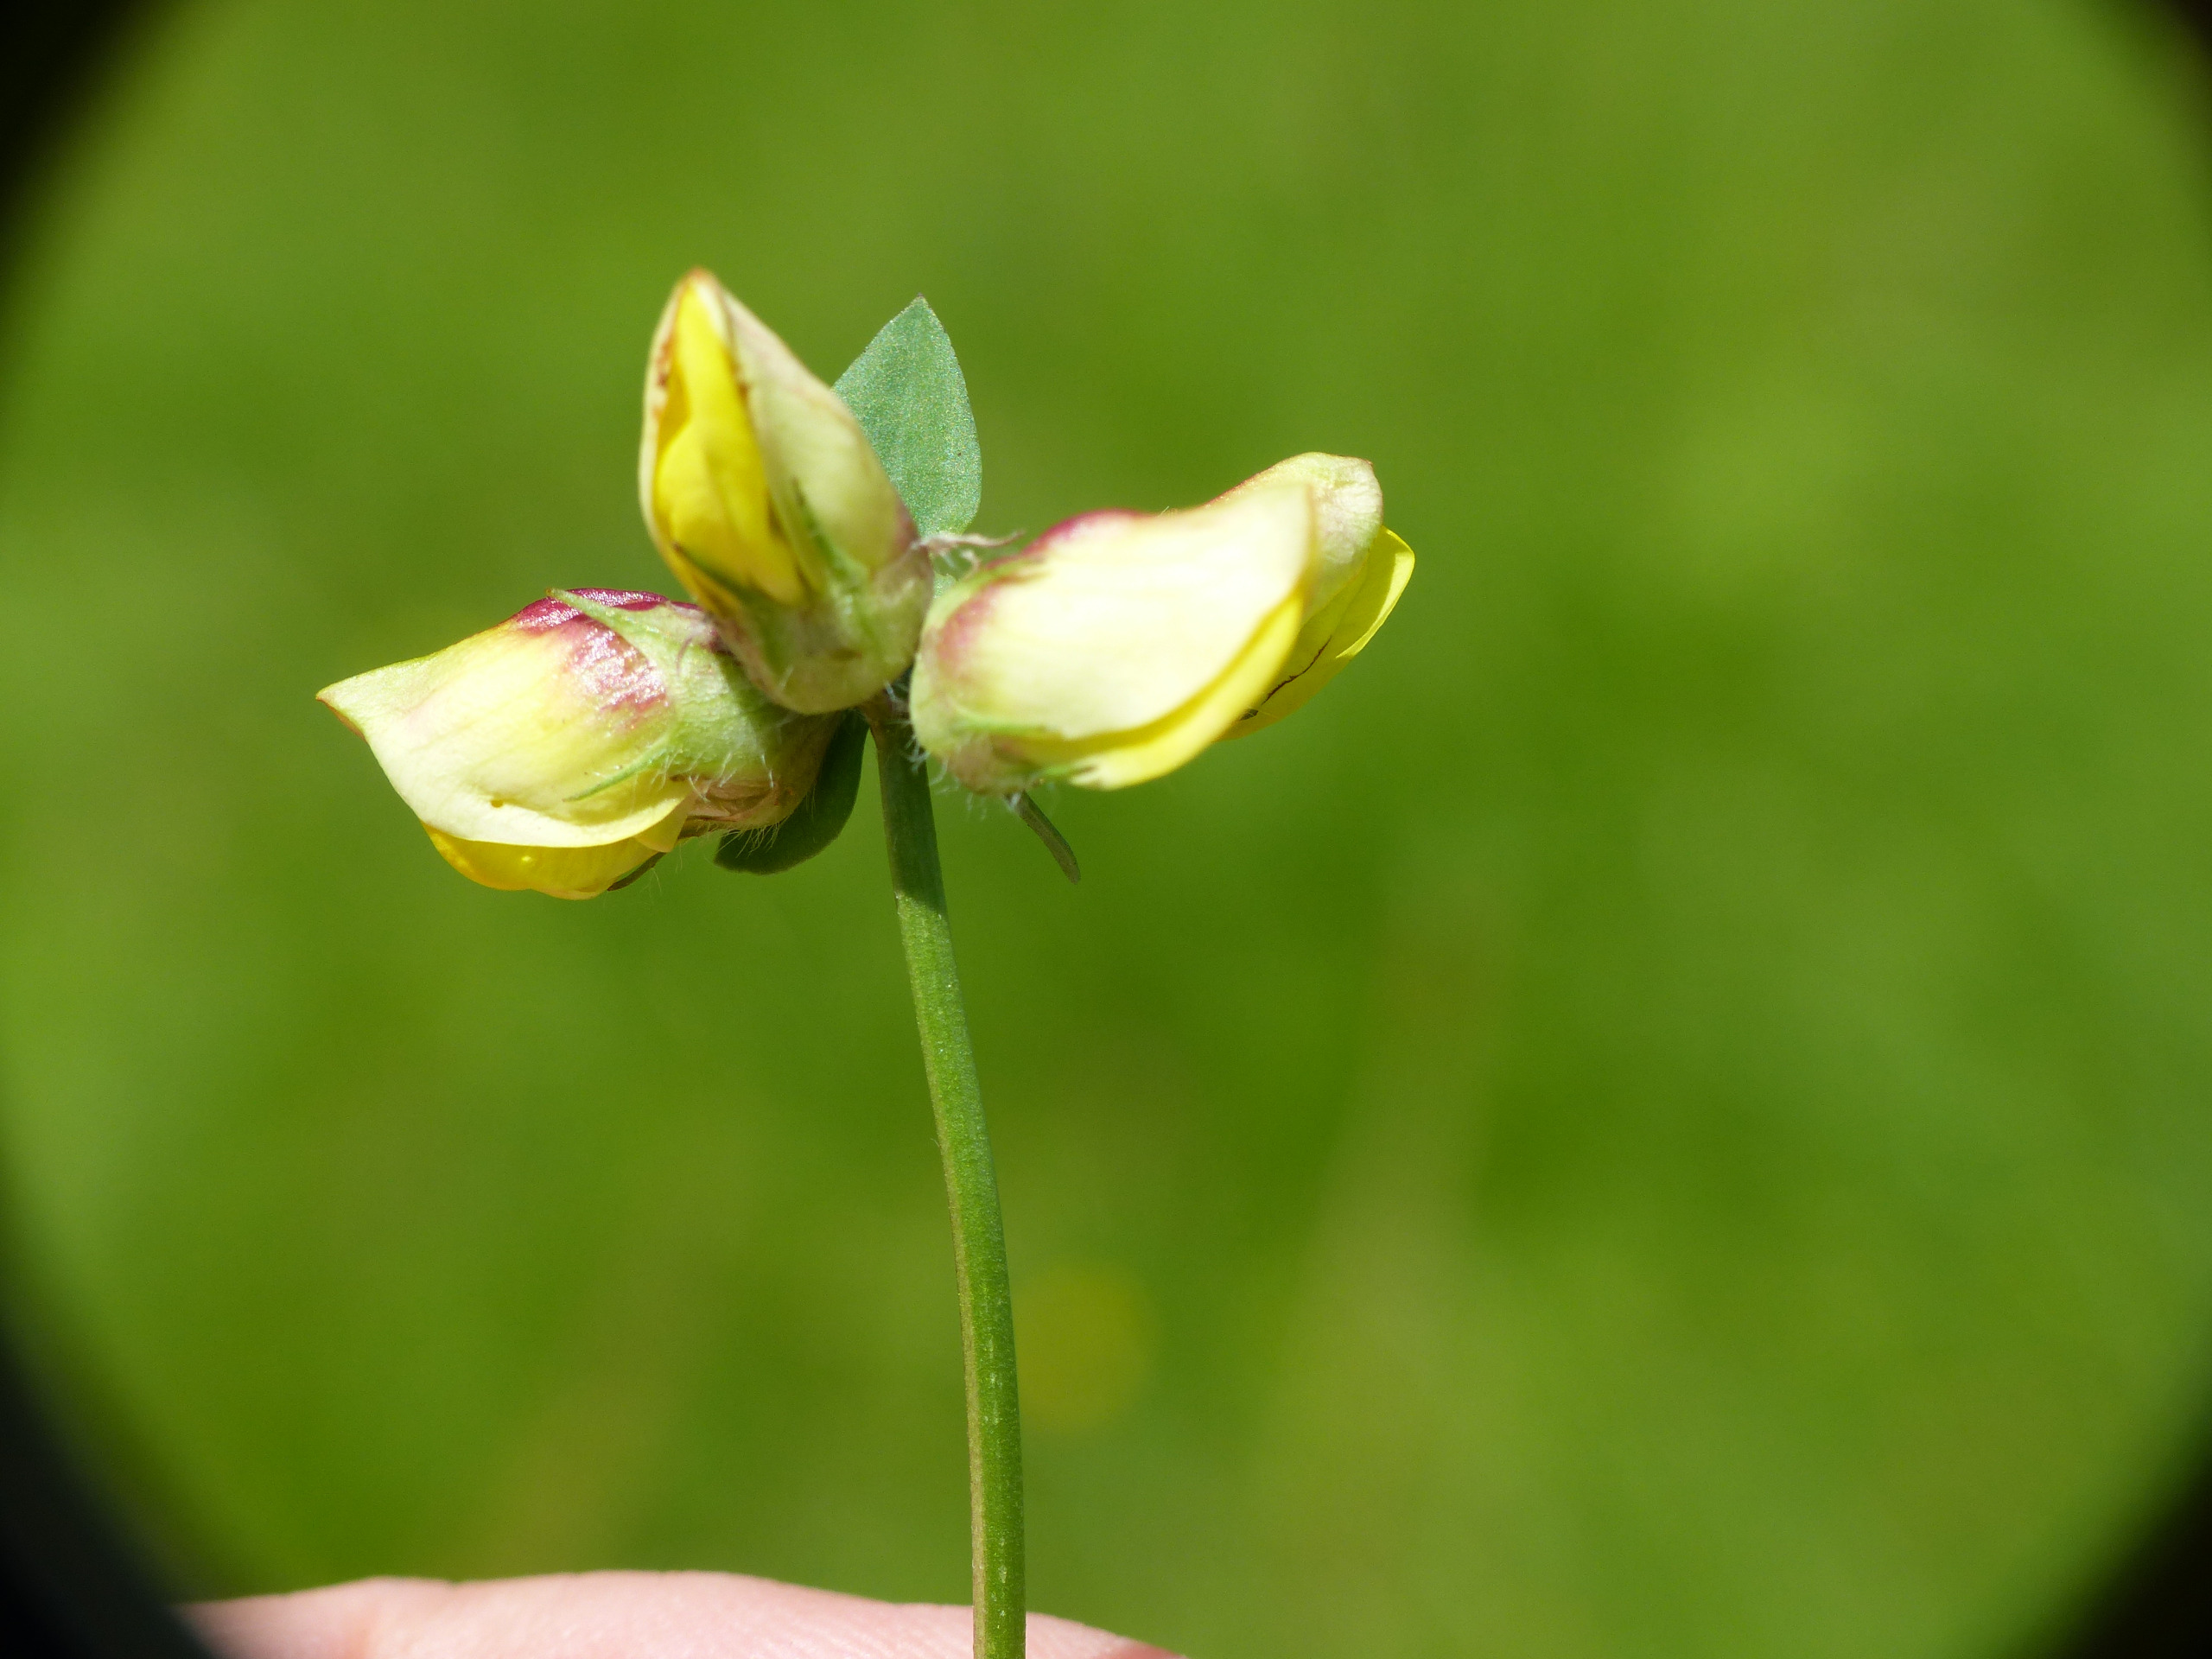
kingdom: Animalia
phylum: Arthropoda
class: Insecta
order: Diptera
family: Cecidomyiidae
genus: Contarinia
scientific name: Contarinia loti
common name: Kællingetandblomstgalmyg
